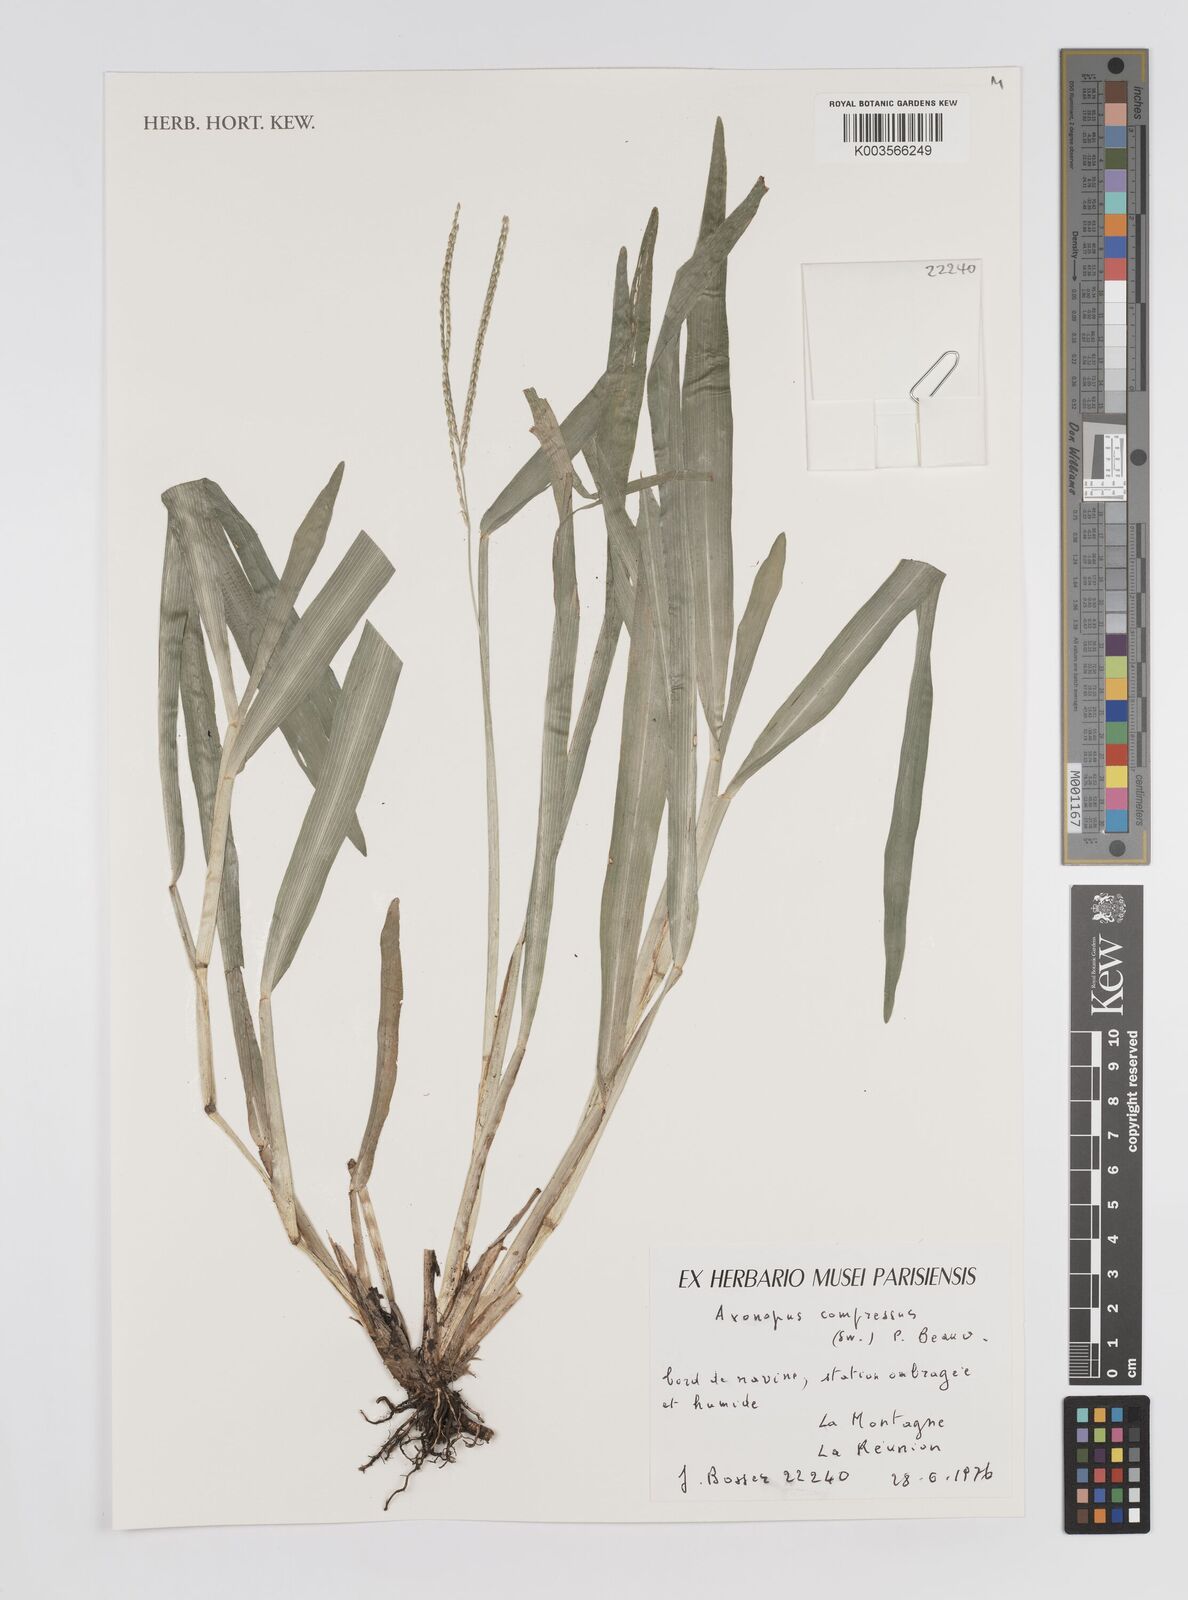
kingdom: Plantae
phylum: Tracheophyta
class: Liliopsida
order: Poales
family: Poaceae
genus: Axonopus
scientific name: Axonopus compressus
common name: American carpet grass
